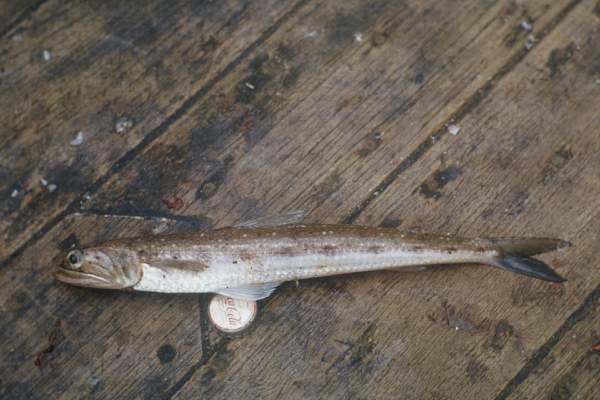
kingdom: Animalia
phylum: Chordata
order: Aulopiformes
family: Synodontidae
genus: Saurida
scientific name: Saurida
